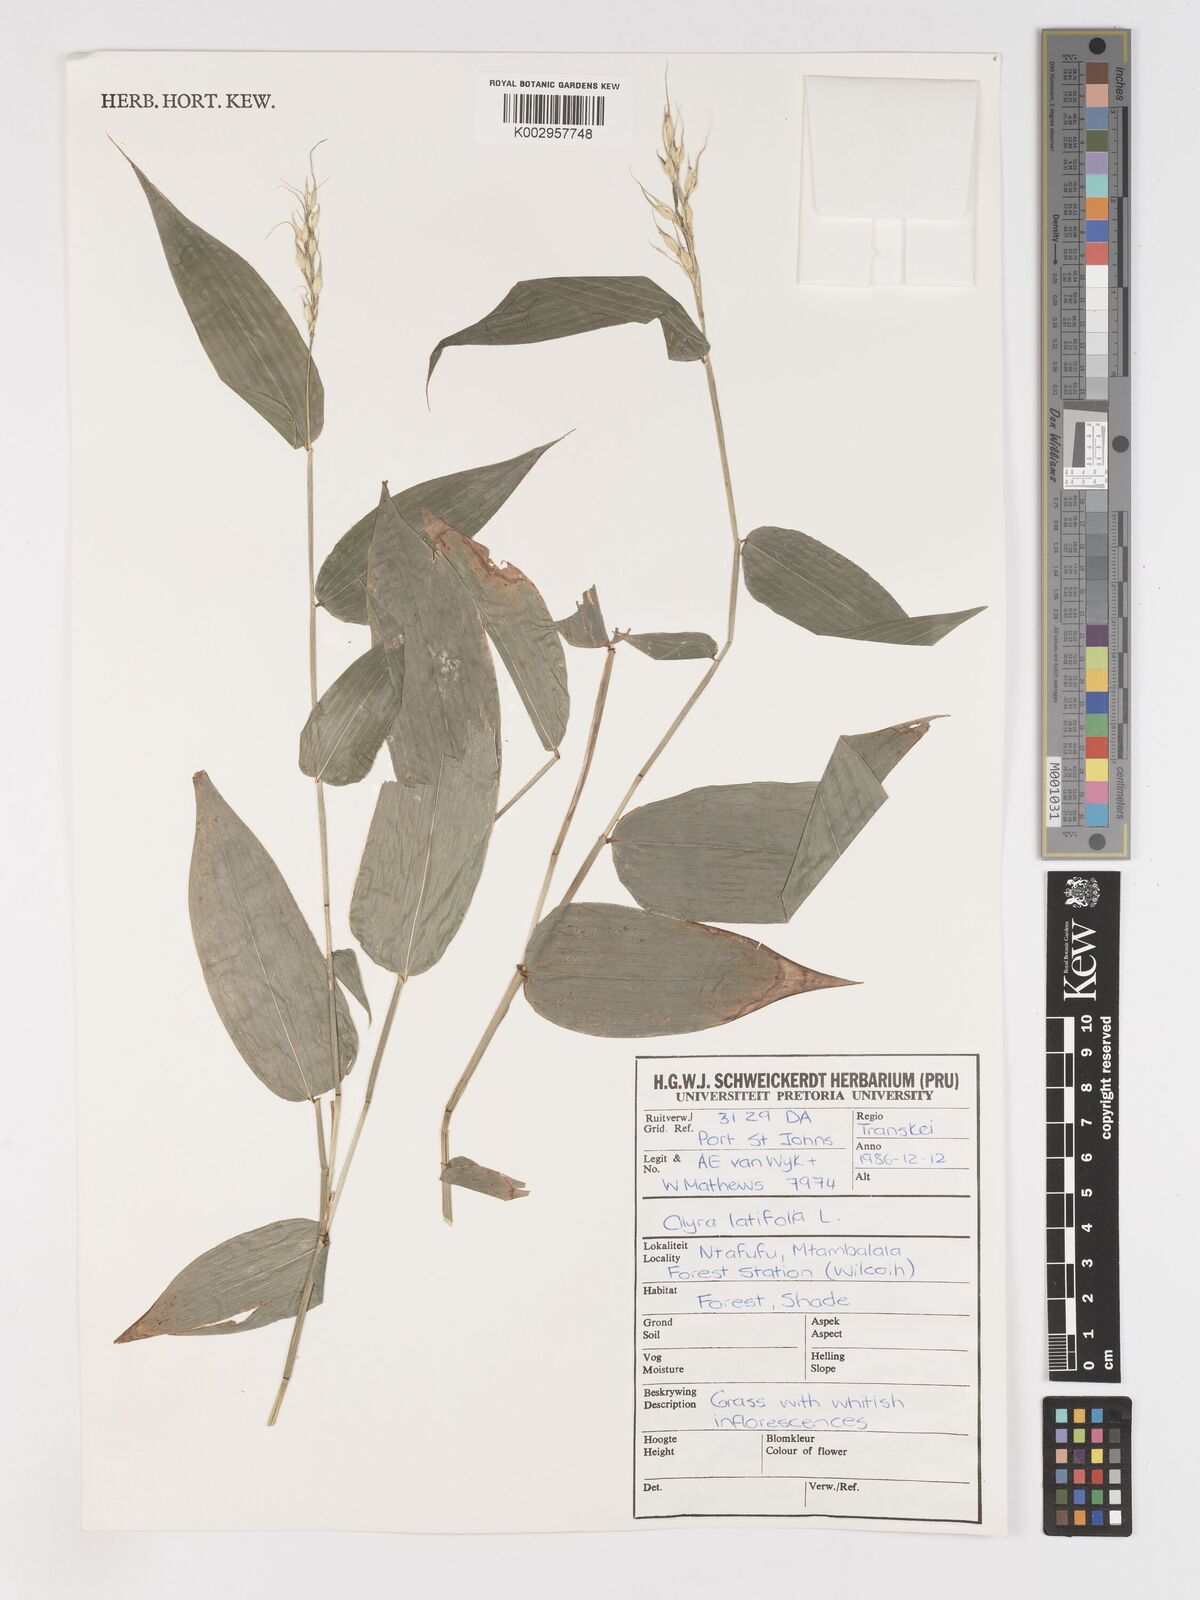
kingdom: Plantae
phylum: Tracheophyta
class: Liliopsida
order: Poales
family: Poaceae
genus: Olyra
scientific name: Olyra latifolia
